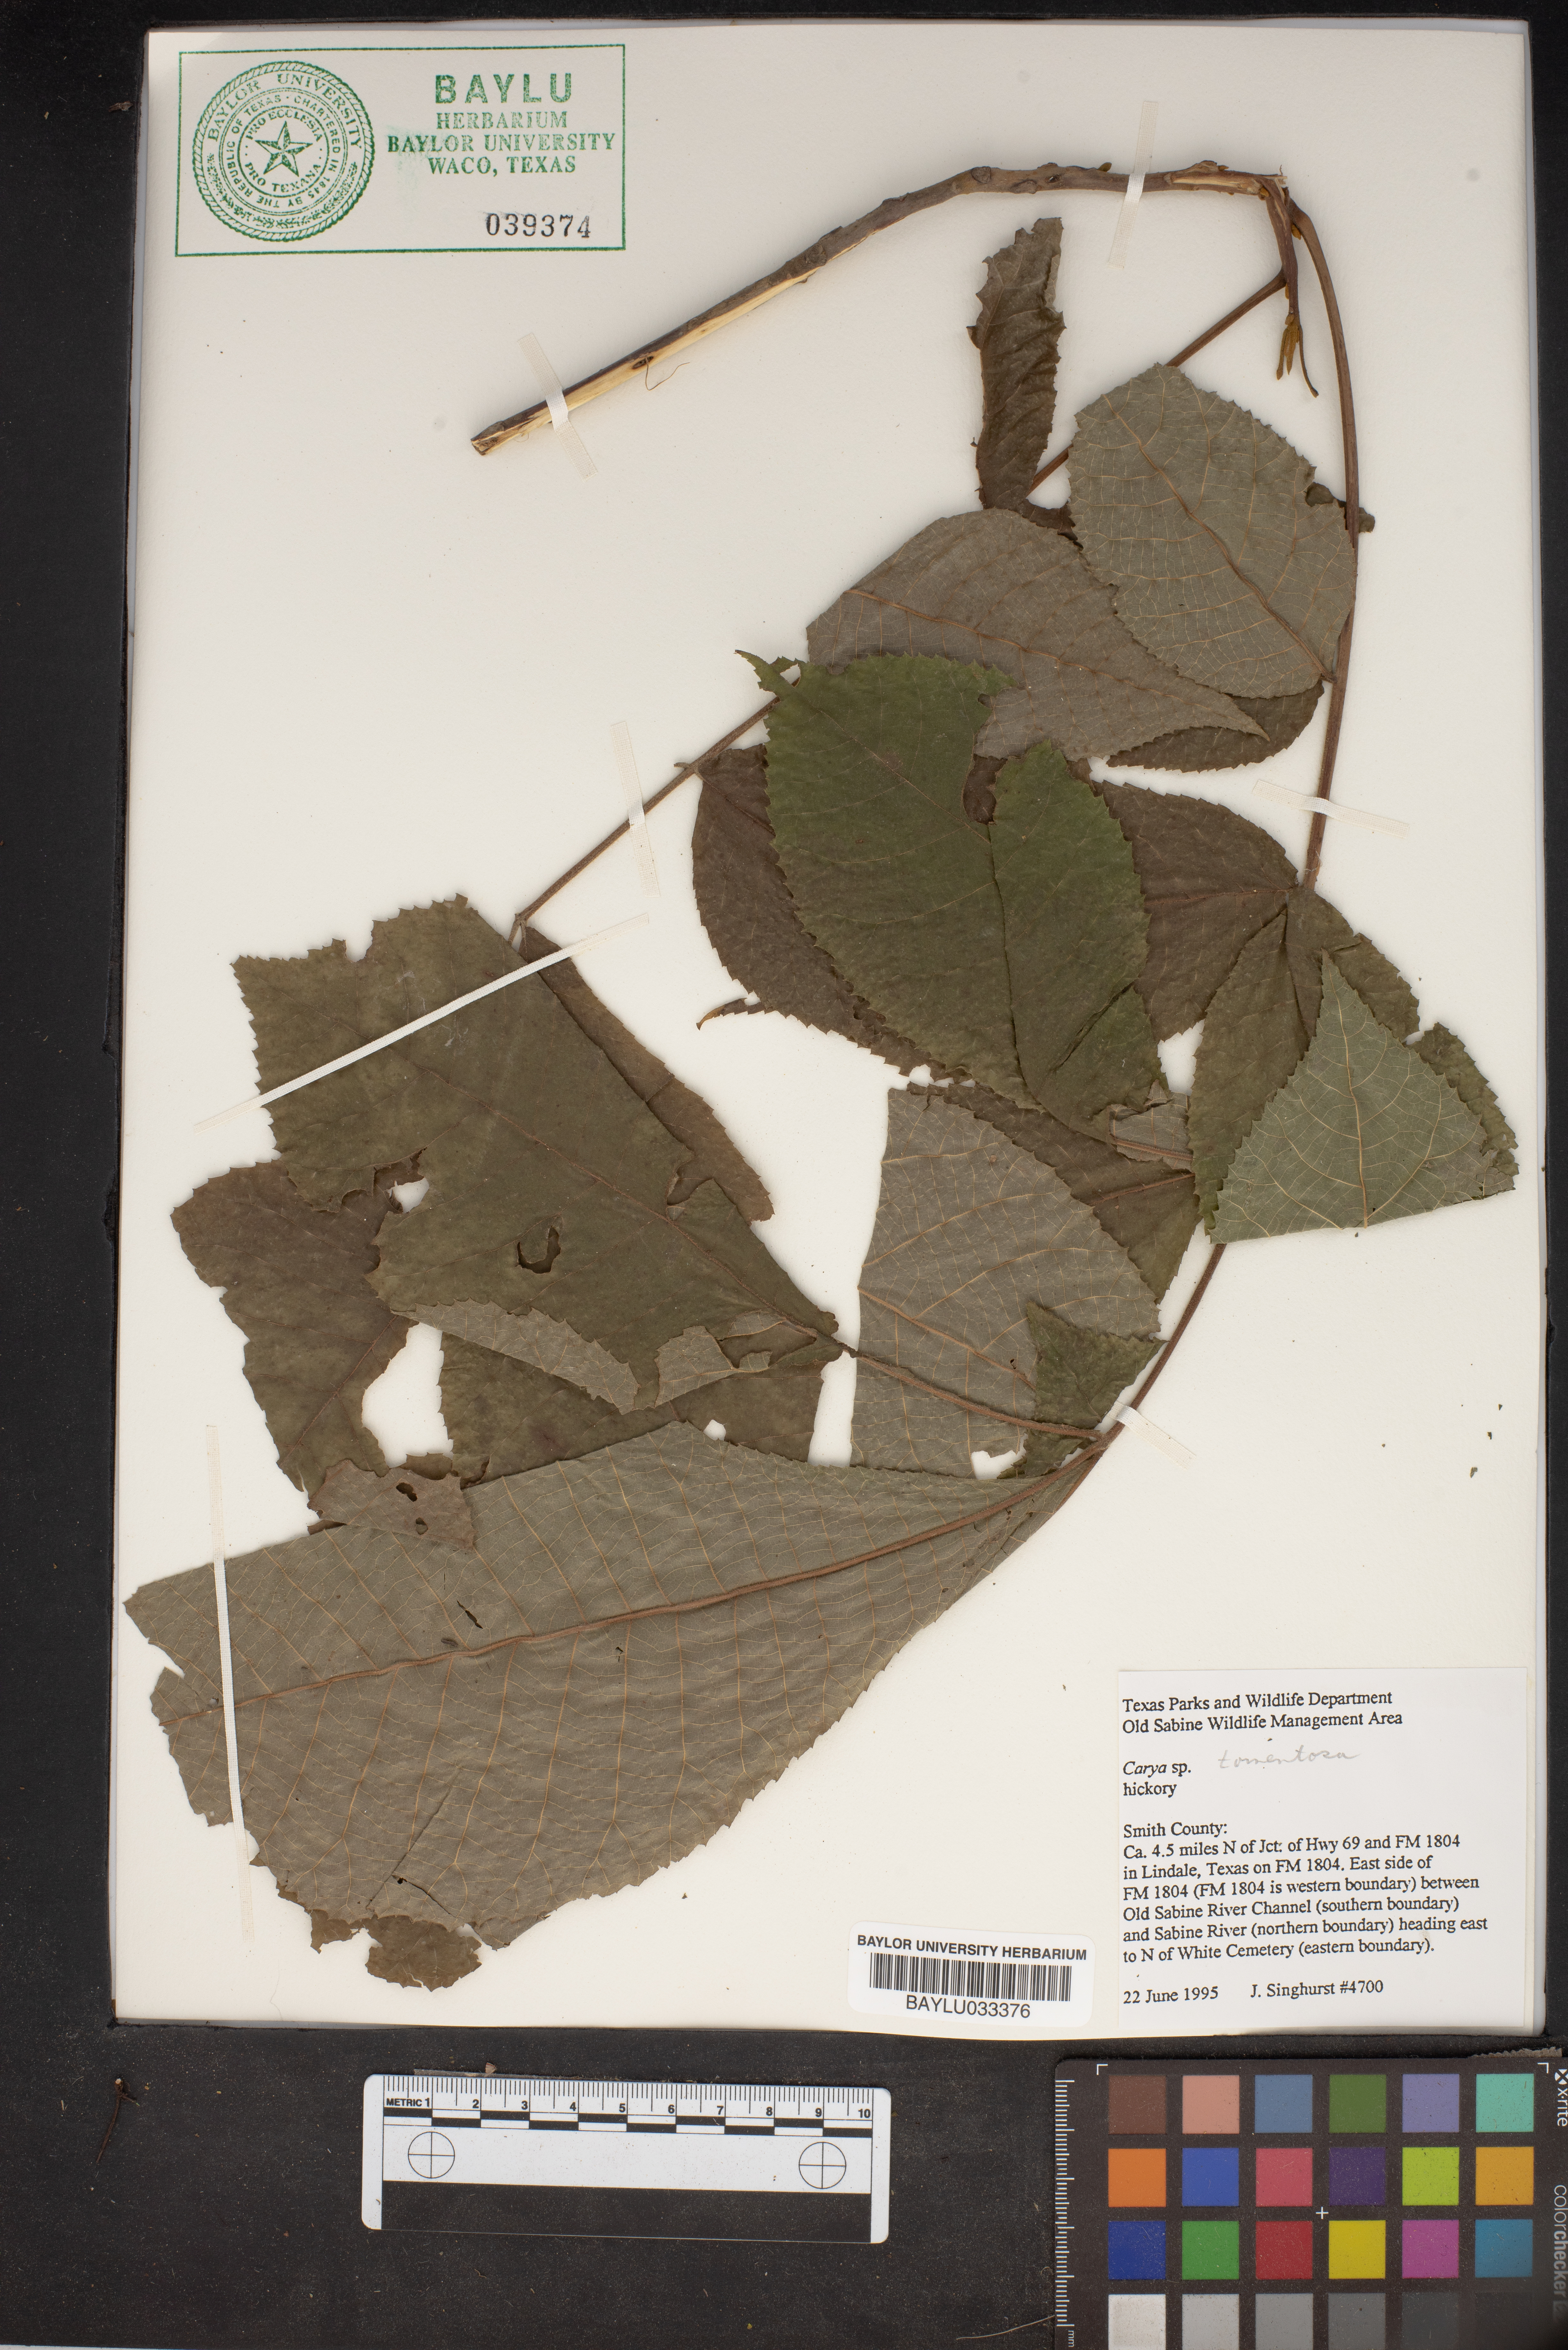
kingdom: Plantae
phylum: Tracheophyta
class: Magnoliopsida
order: Fagales
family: Juglandaceae
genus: Carya
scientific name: Carya alba
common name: Mockernut hickory
